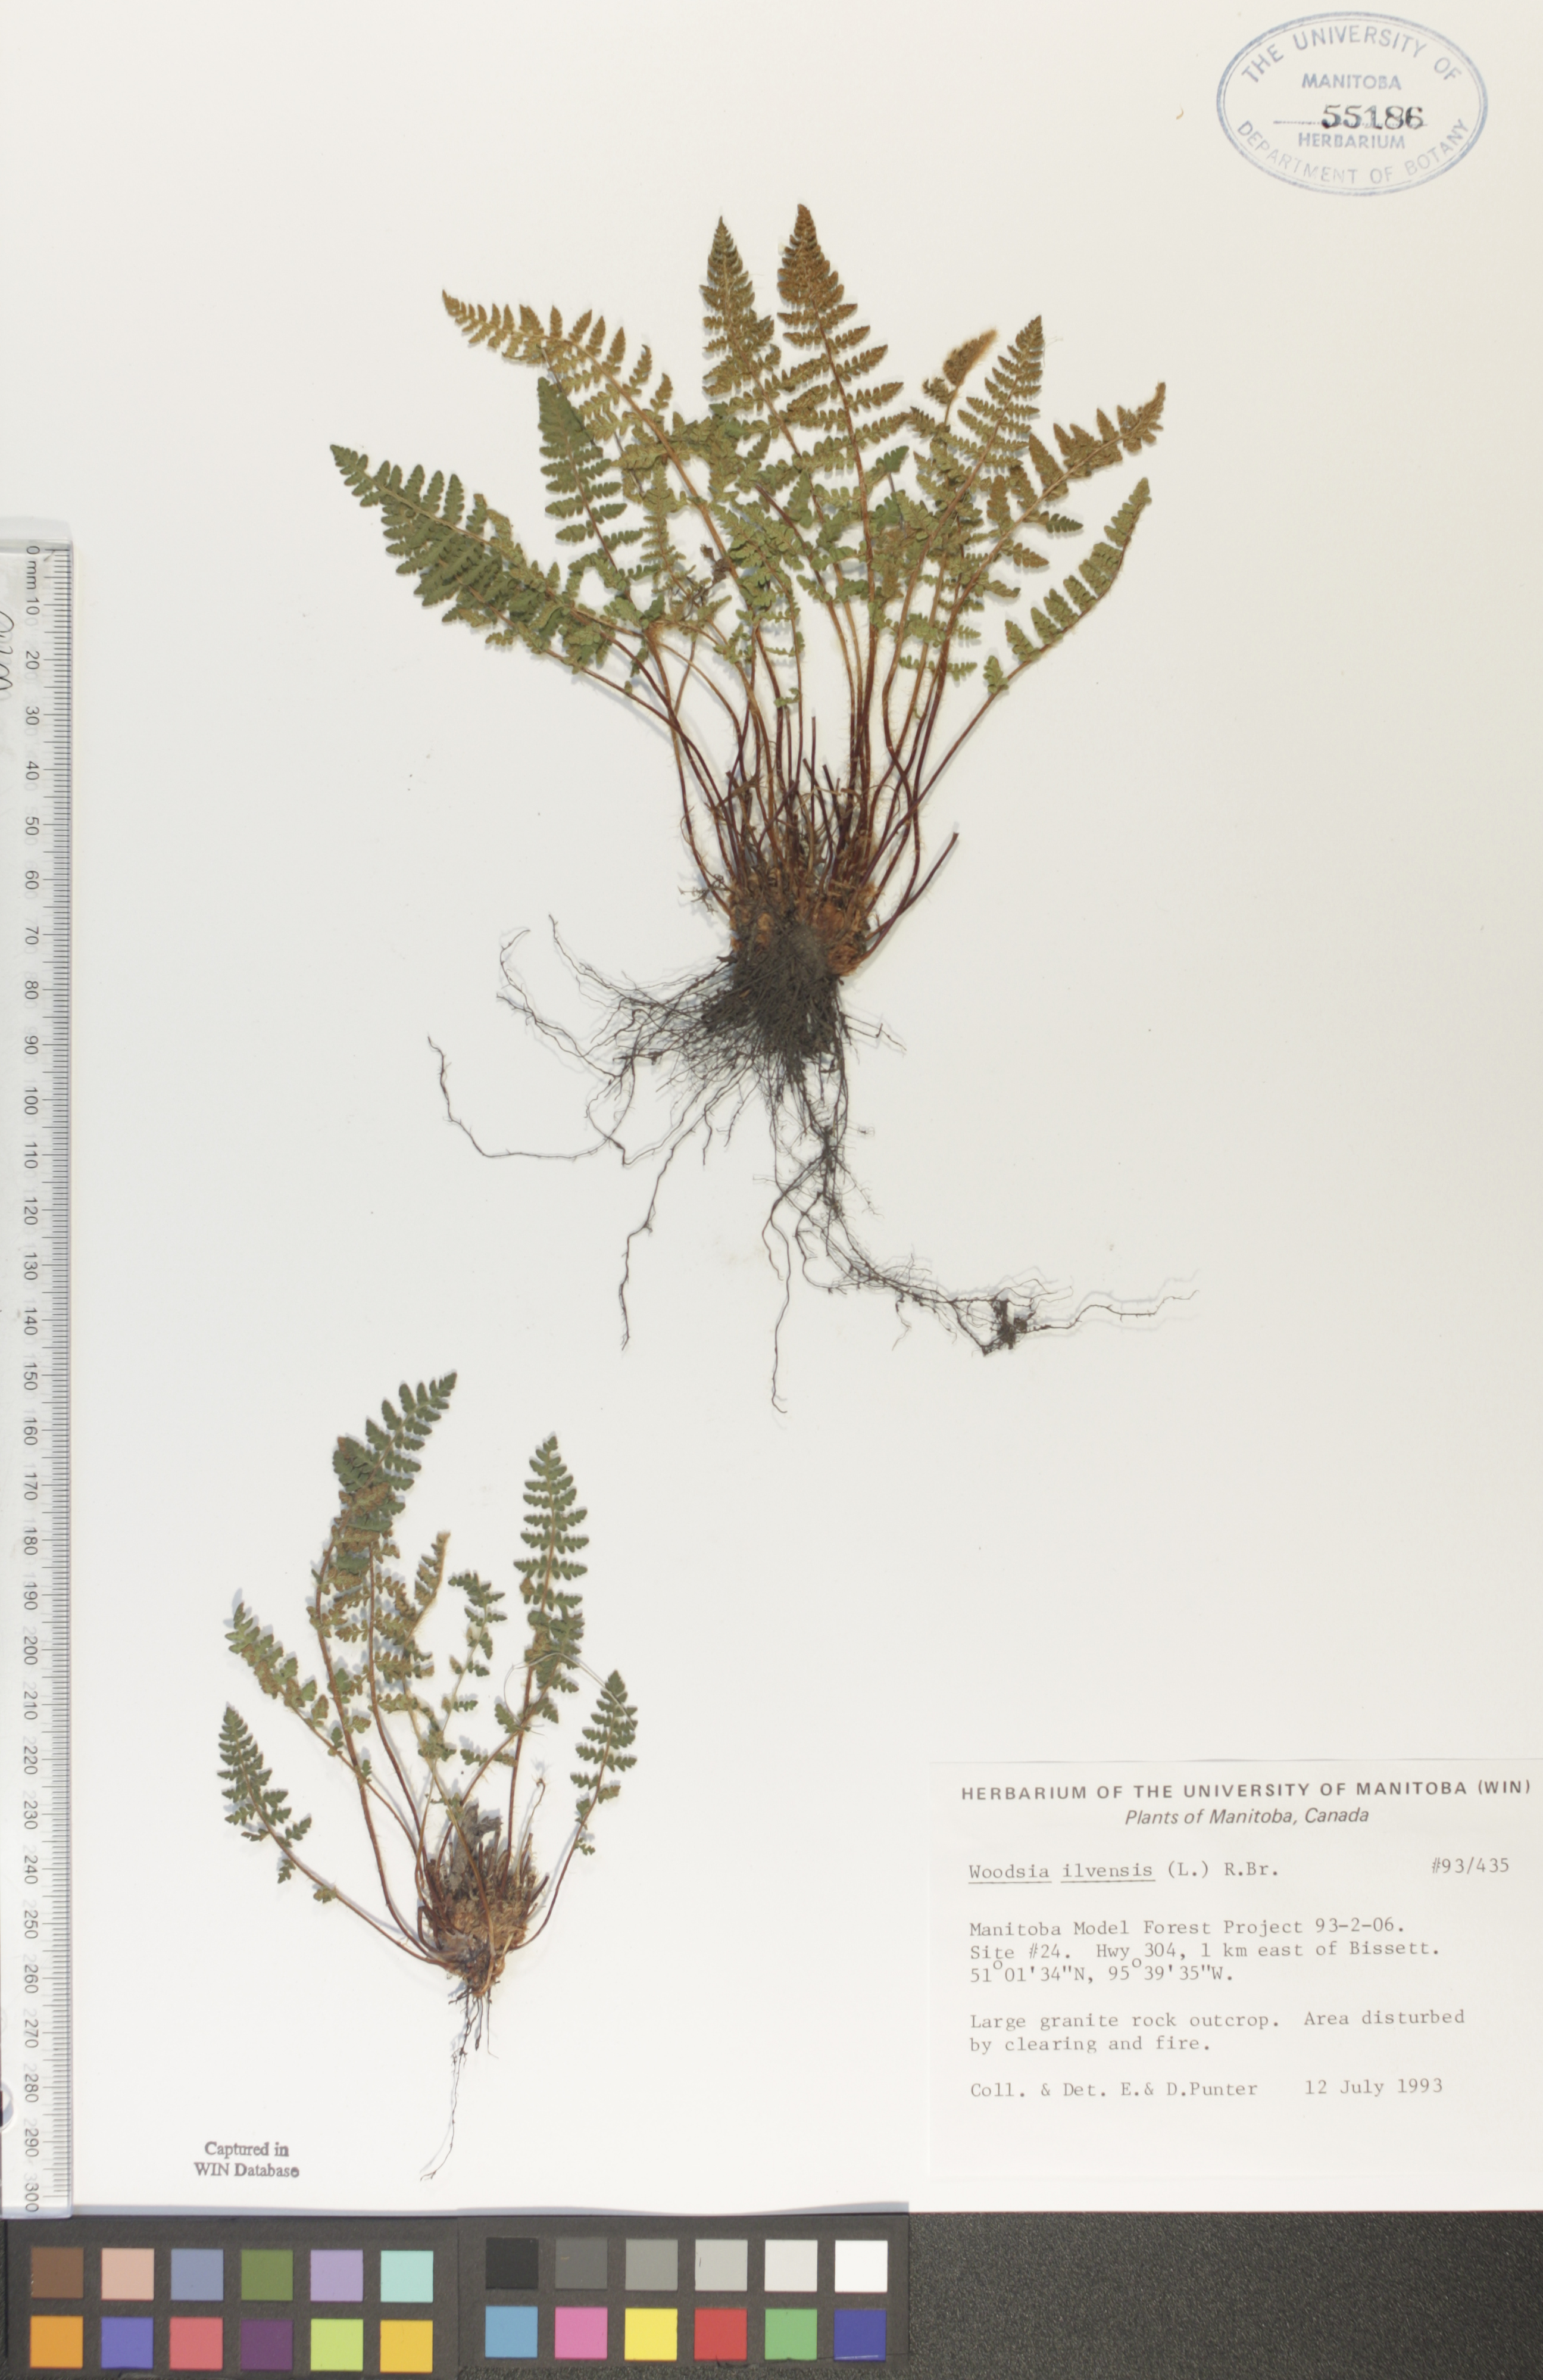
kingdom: Plantae
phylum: Tracheophyta
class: Polypodiopsida
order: Polypodiales
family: Woodsiaceae
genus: Woodsia
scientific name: Woodsia ilvensis
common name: Fragrant woodsia
